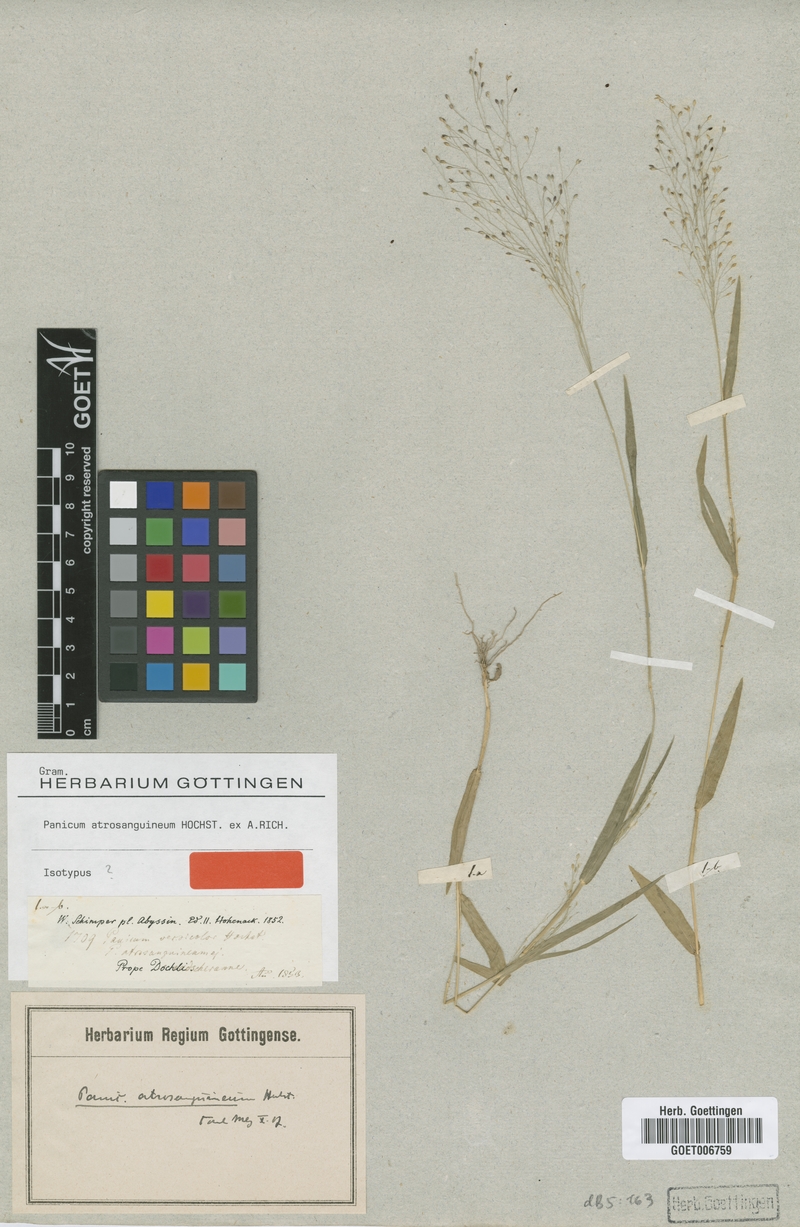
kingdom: Plantae
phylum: Tracheophyta
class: Liliopsida
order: Poales
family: Poaceae
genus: Panicum
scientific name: Panicum atrosanguineum
